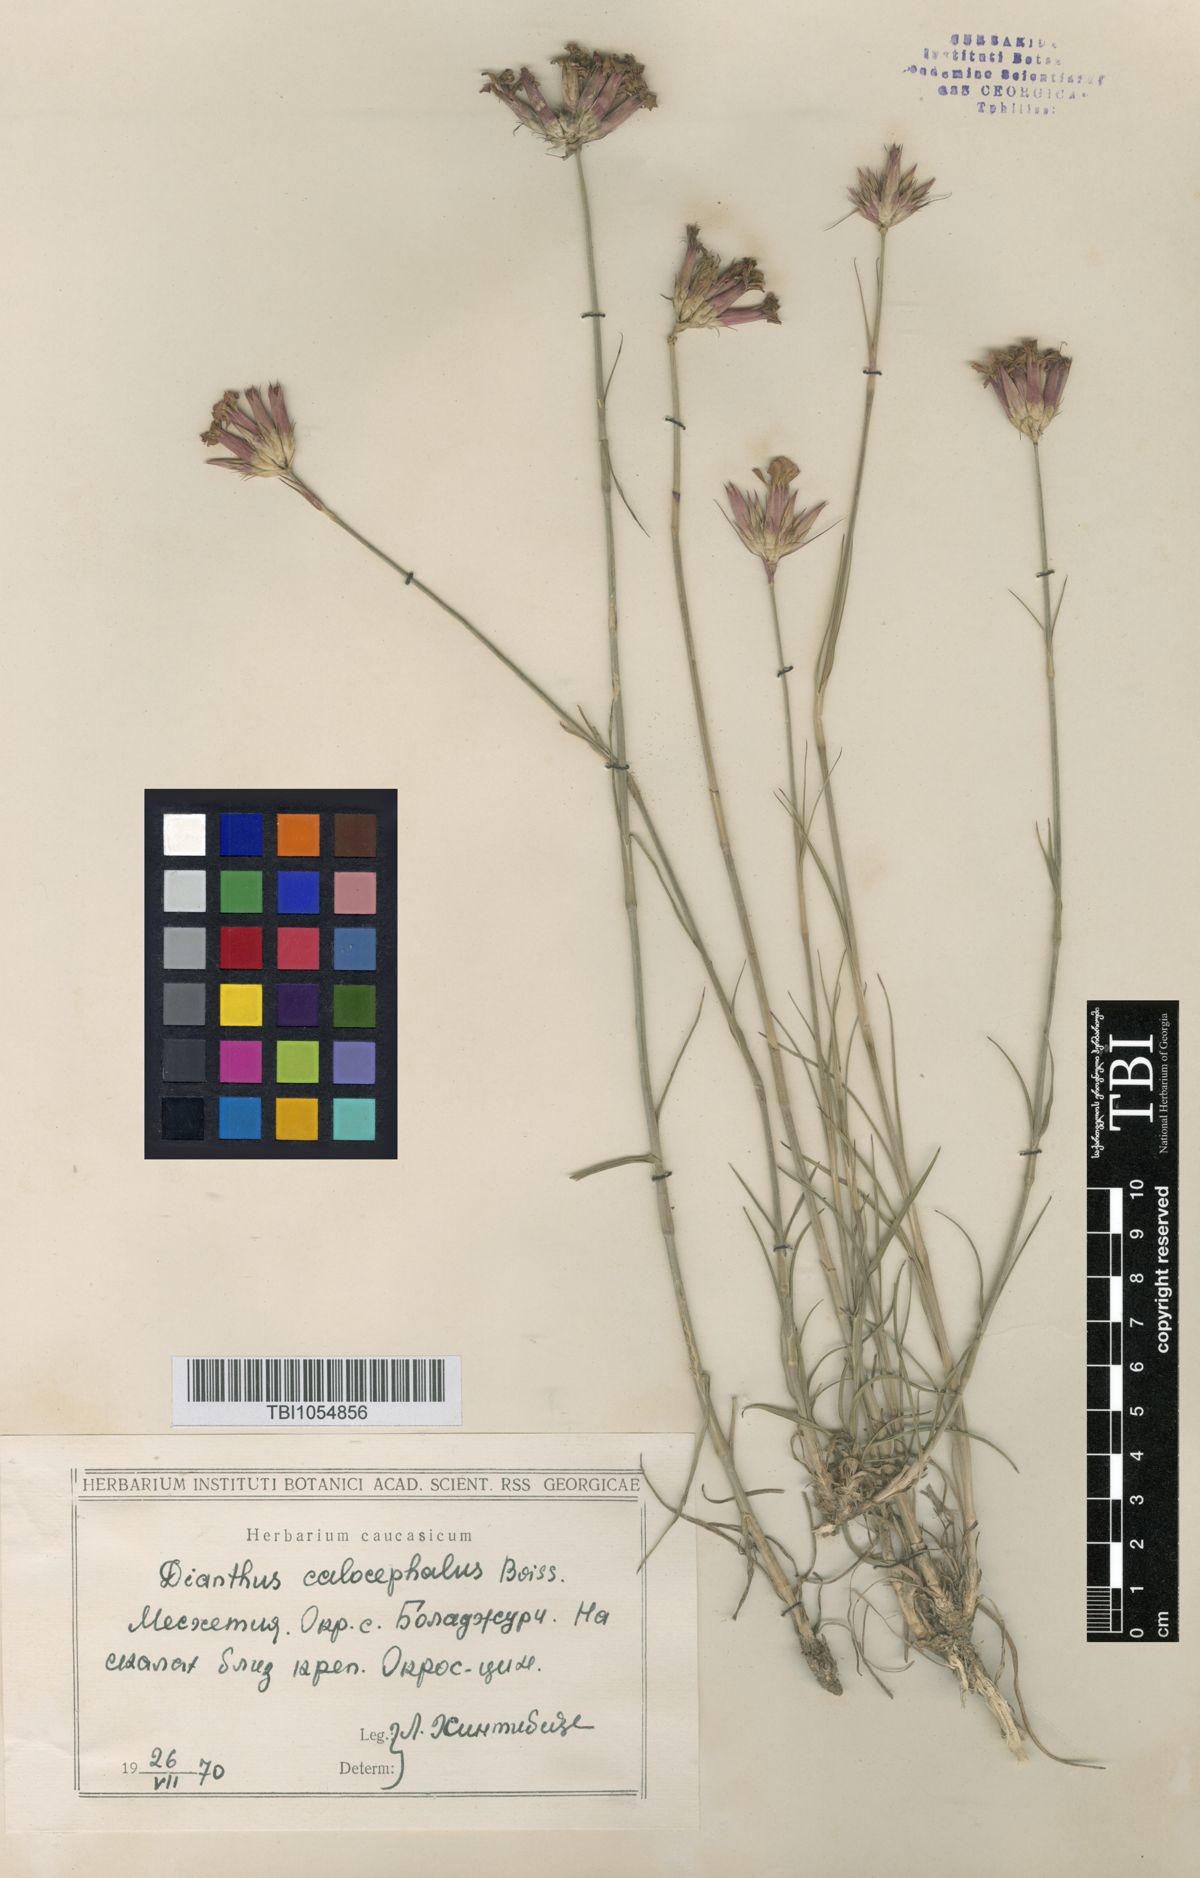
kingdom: Plantae
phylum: Tracheophyta
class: Magnoliopsida
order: Caryophyllales
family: Caryophyllaceae
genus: Dianthus
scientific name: Dianthus cruentus
